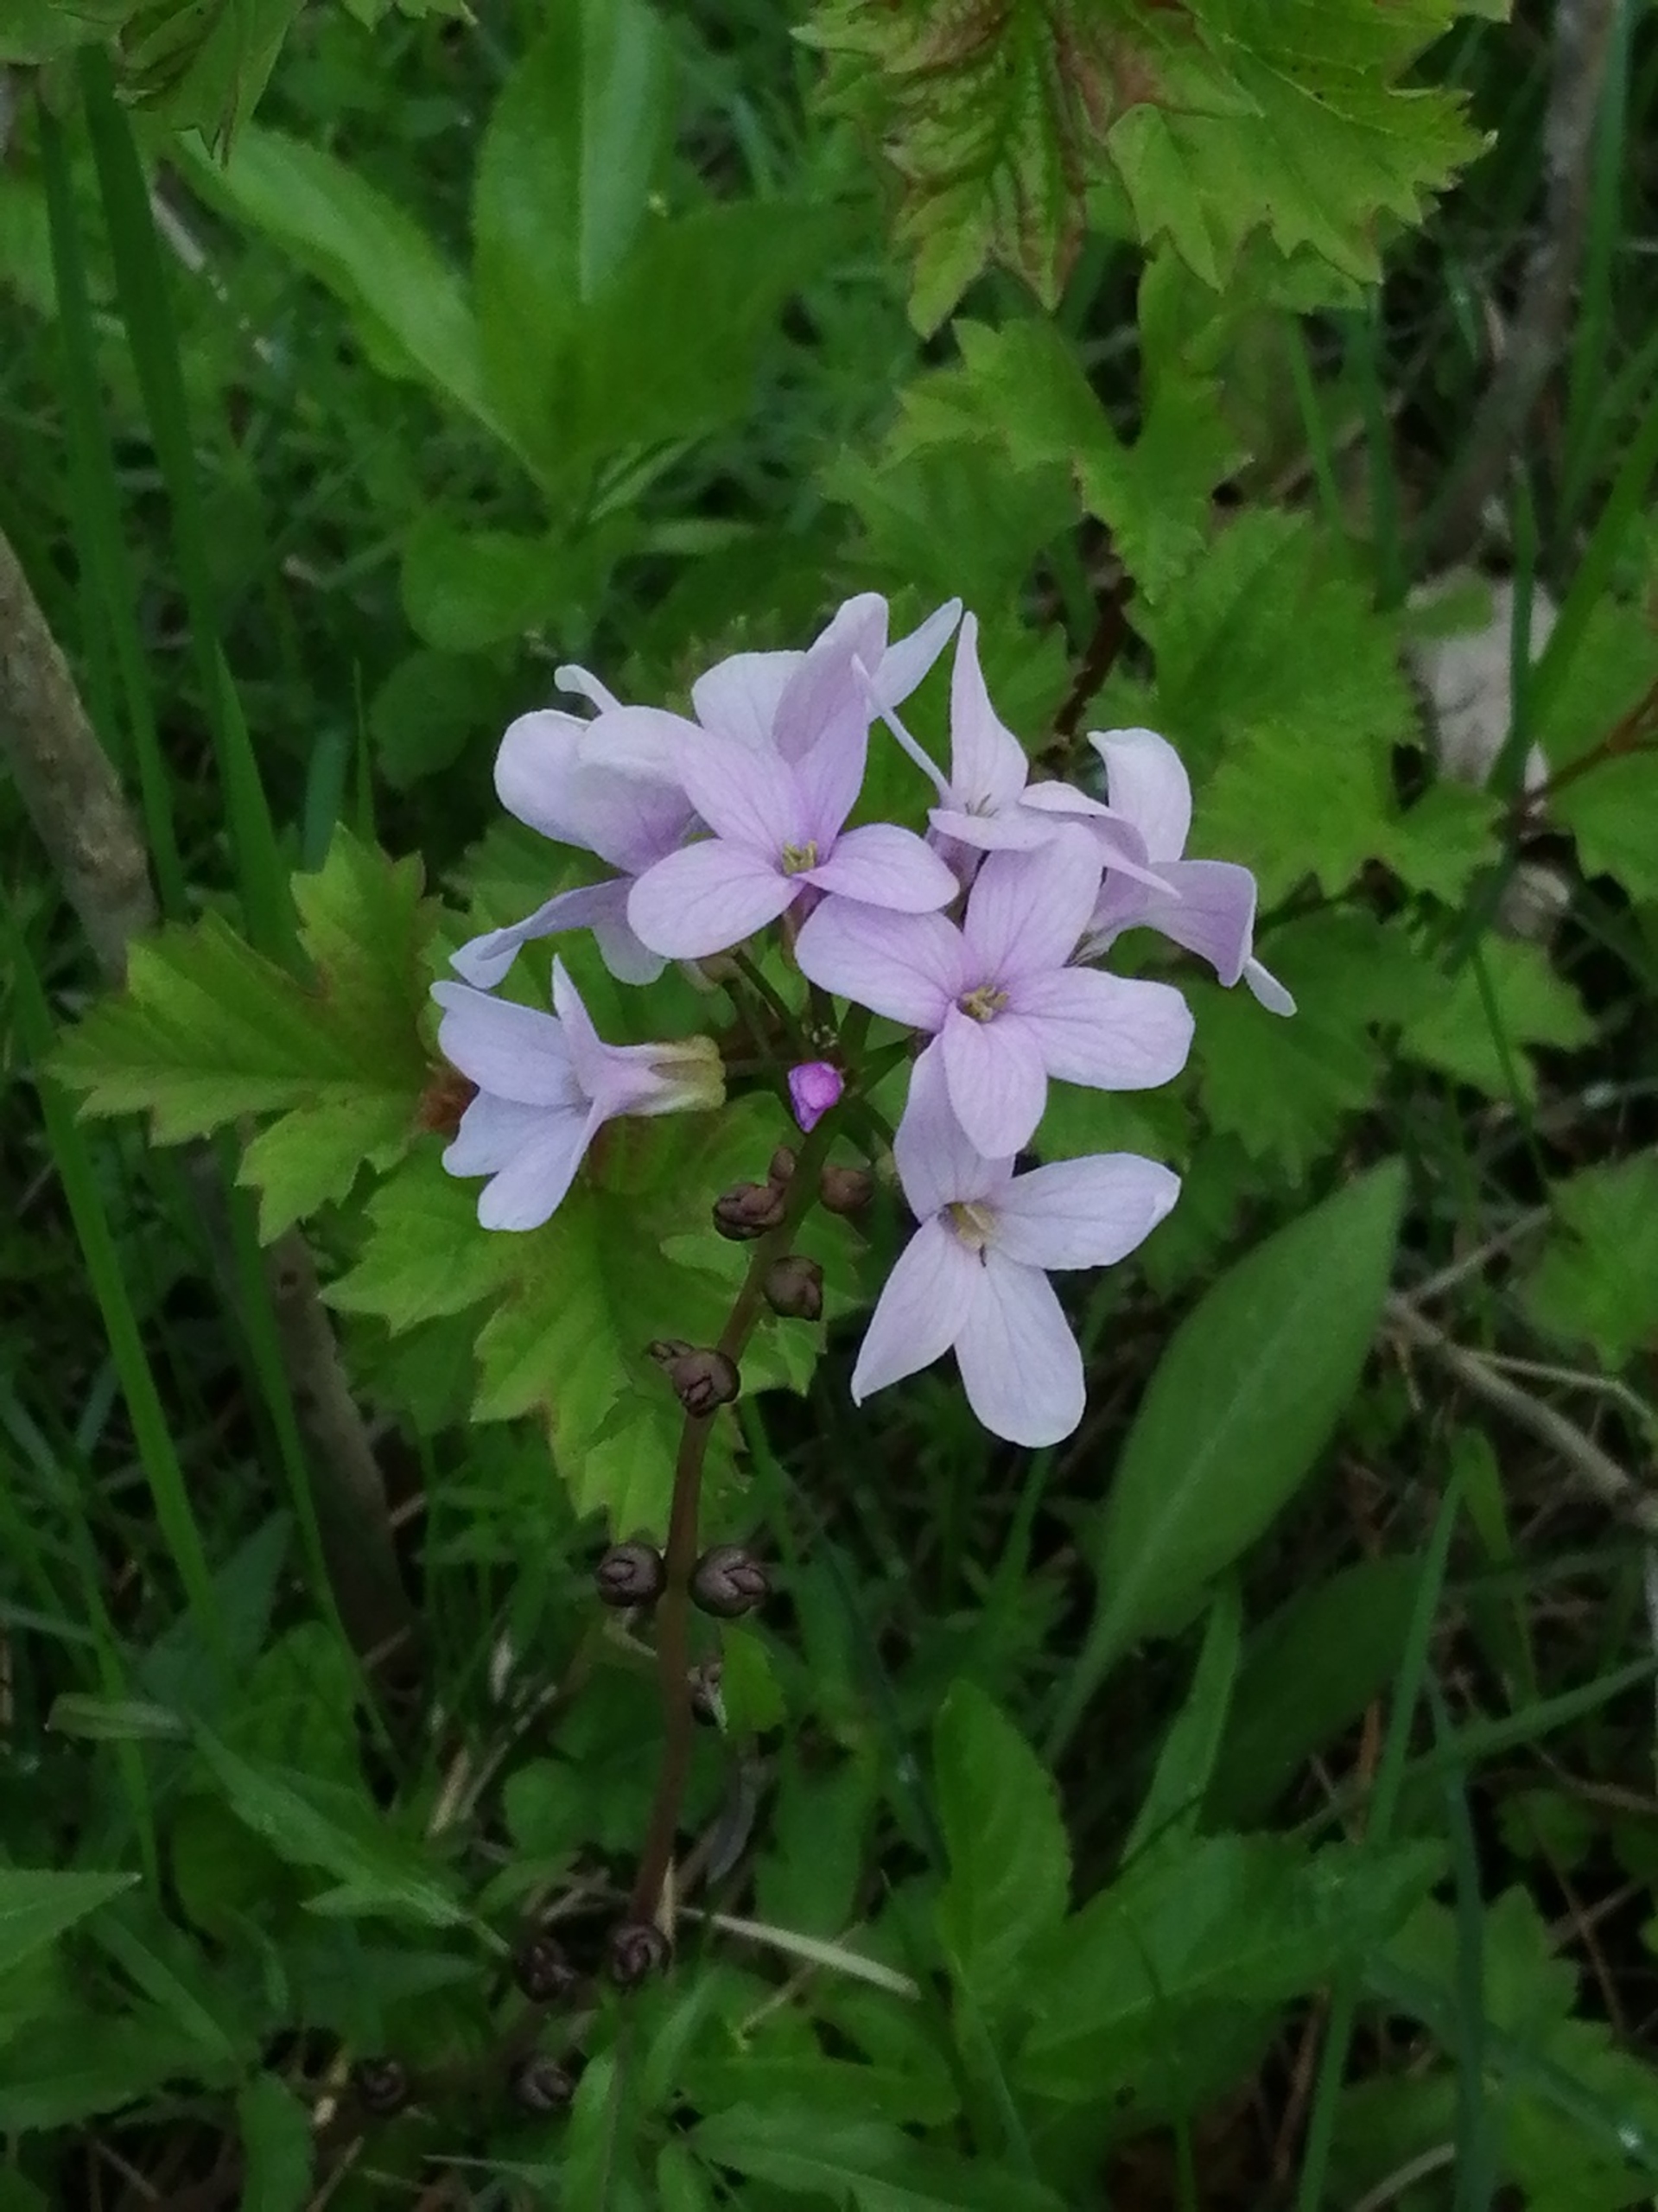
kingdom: Plantae
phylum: Tracheophyta
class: Magnoliopsida
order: Brassicales
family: Brassicaceae
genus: Cardamine
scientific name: Cardamine bulbifera
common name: Tandrod
